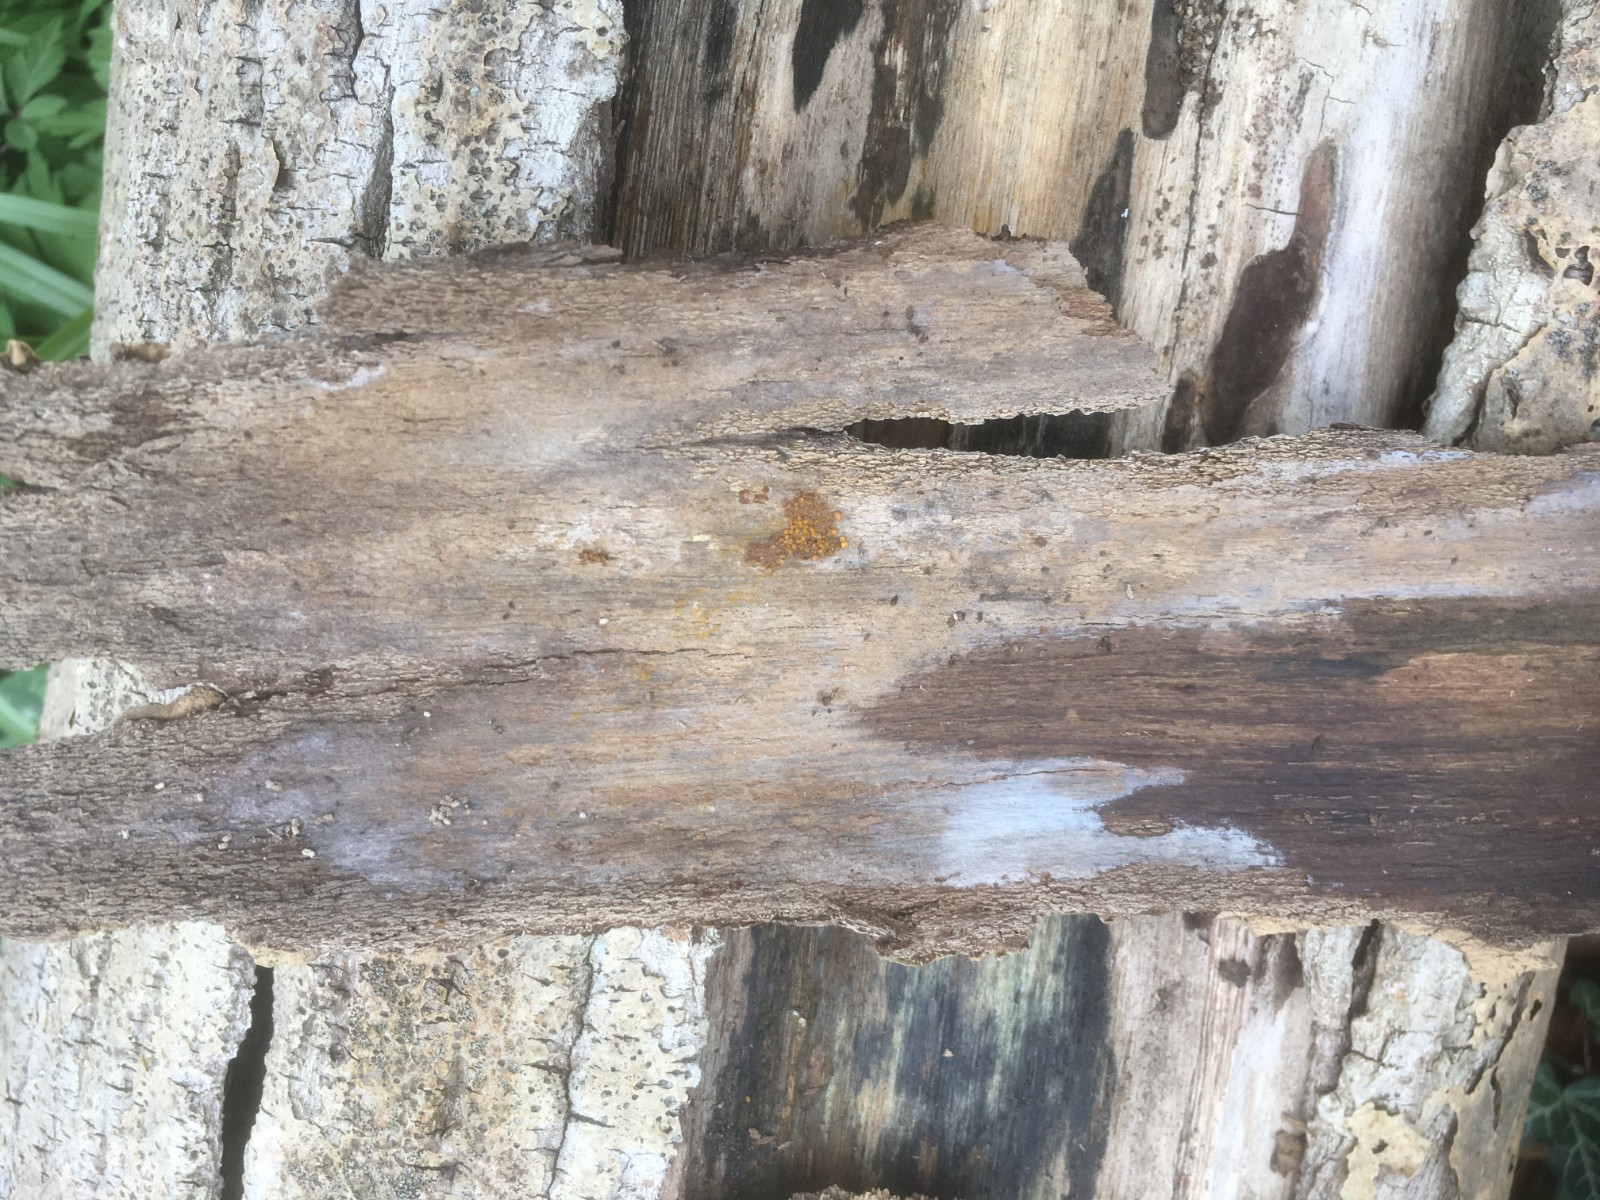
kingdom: Protozoa
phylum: Mycetozoa
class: Myxomycetes
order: Trichiales
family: Trichiaceae
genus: Perichaena
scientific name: Perichaena corticalis
